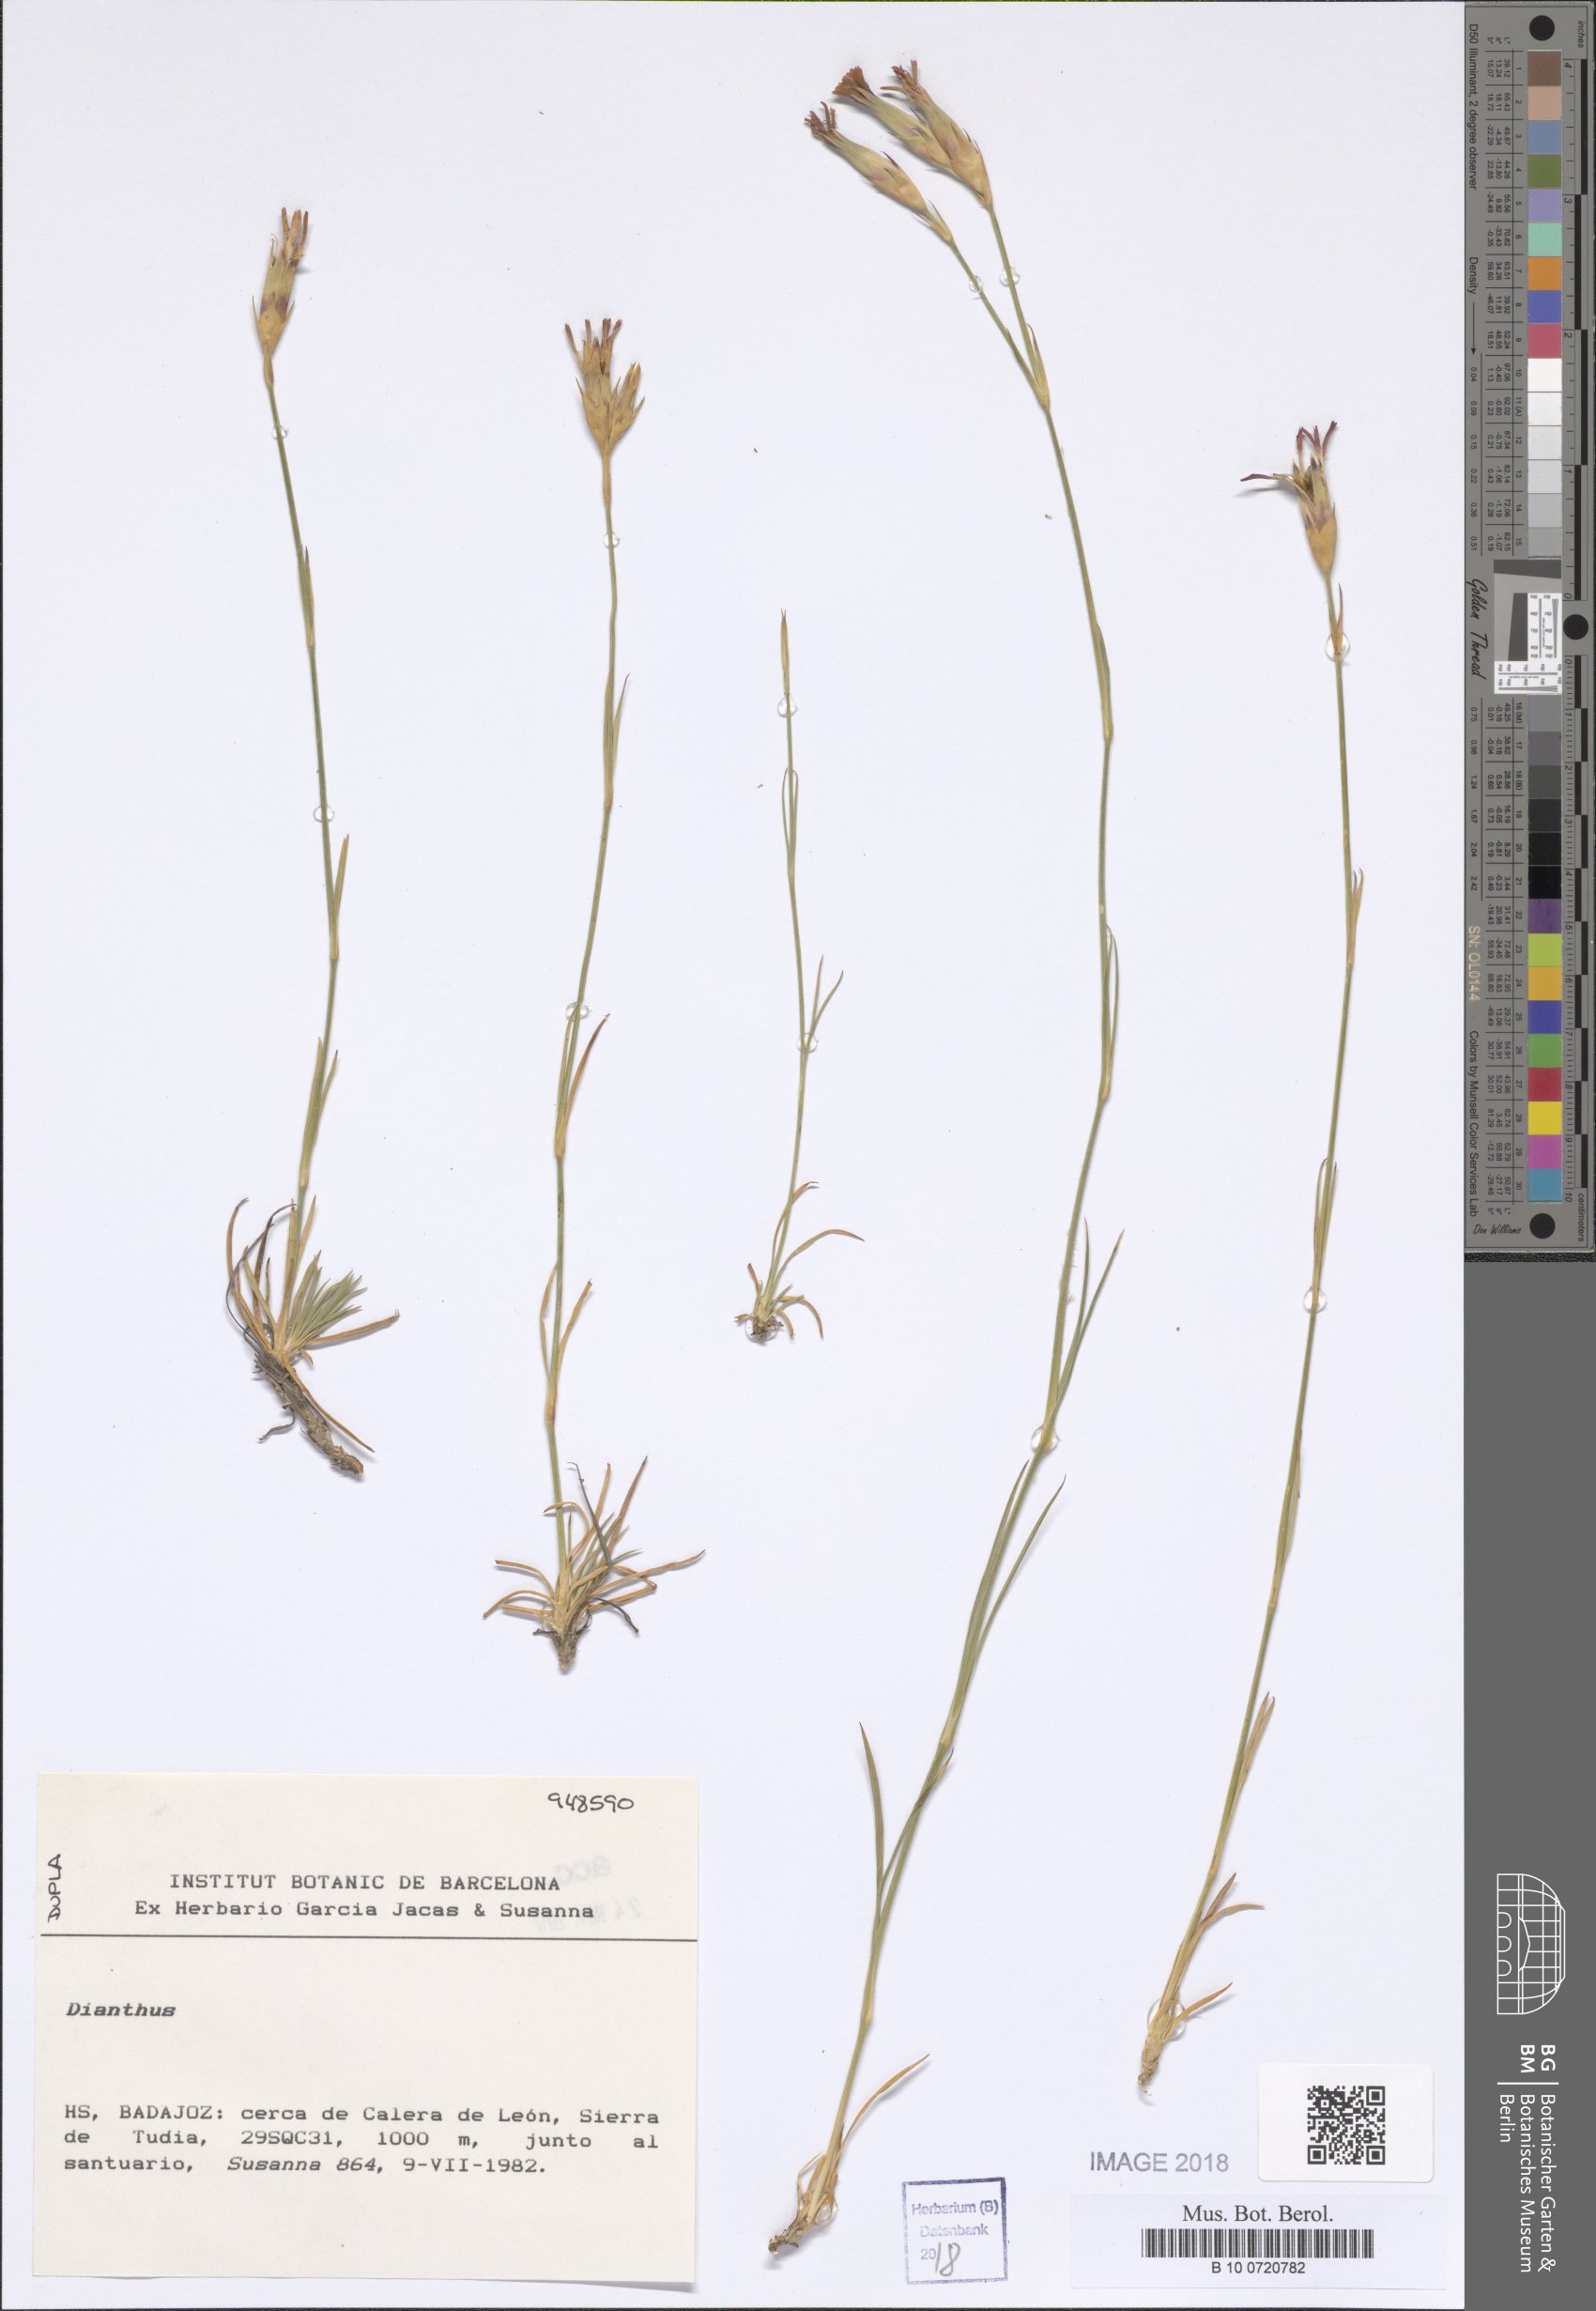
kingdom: Plantae
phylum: Tracheophyta
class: Magnoliopsida
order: Caryophyllales
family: Caryophyllaceae
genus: Dianthus
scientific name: Dianthus
